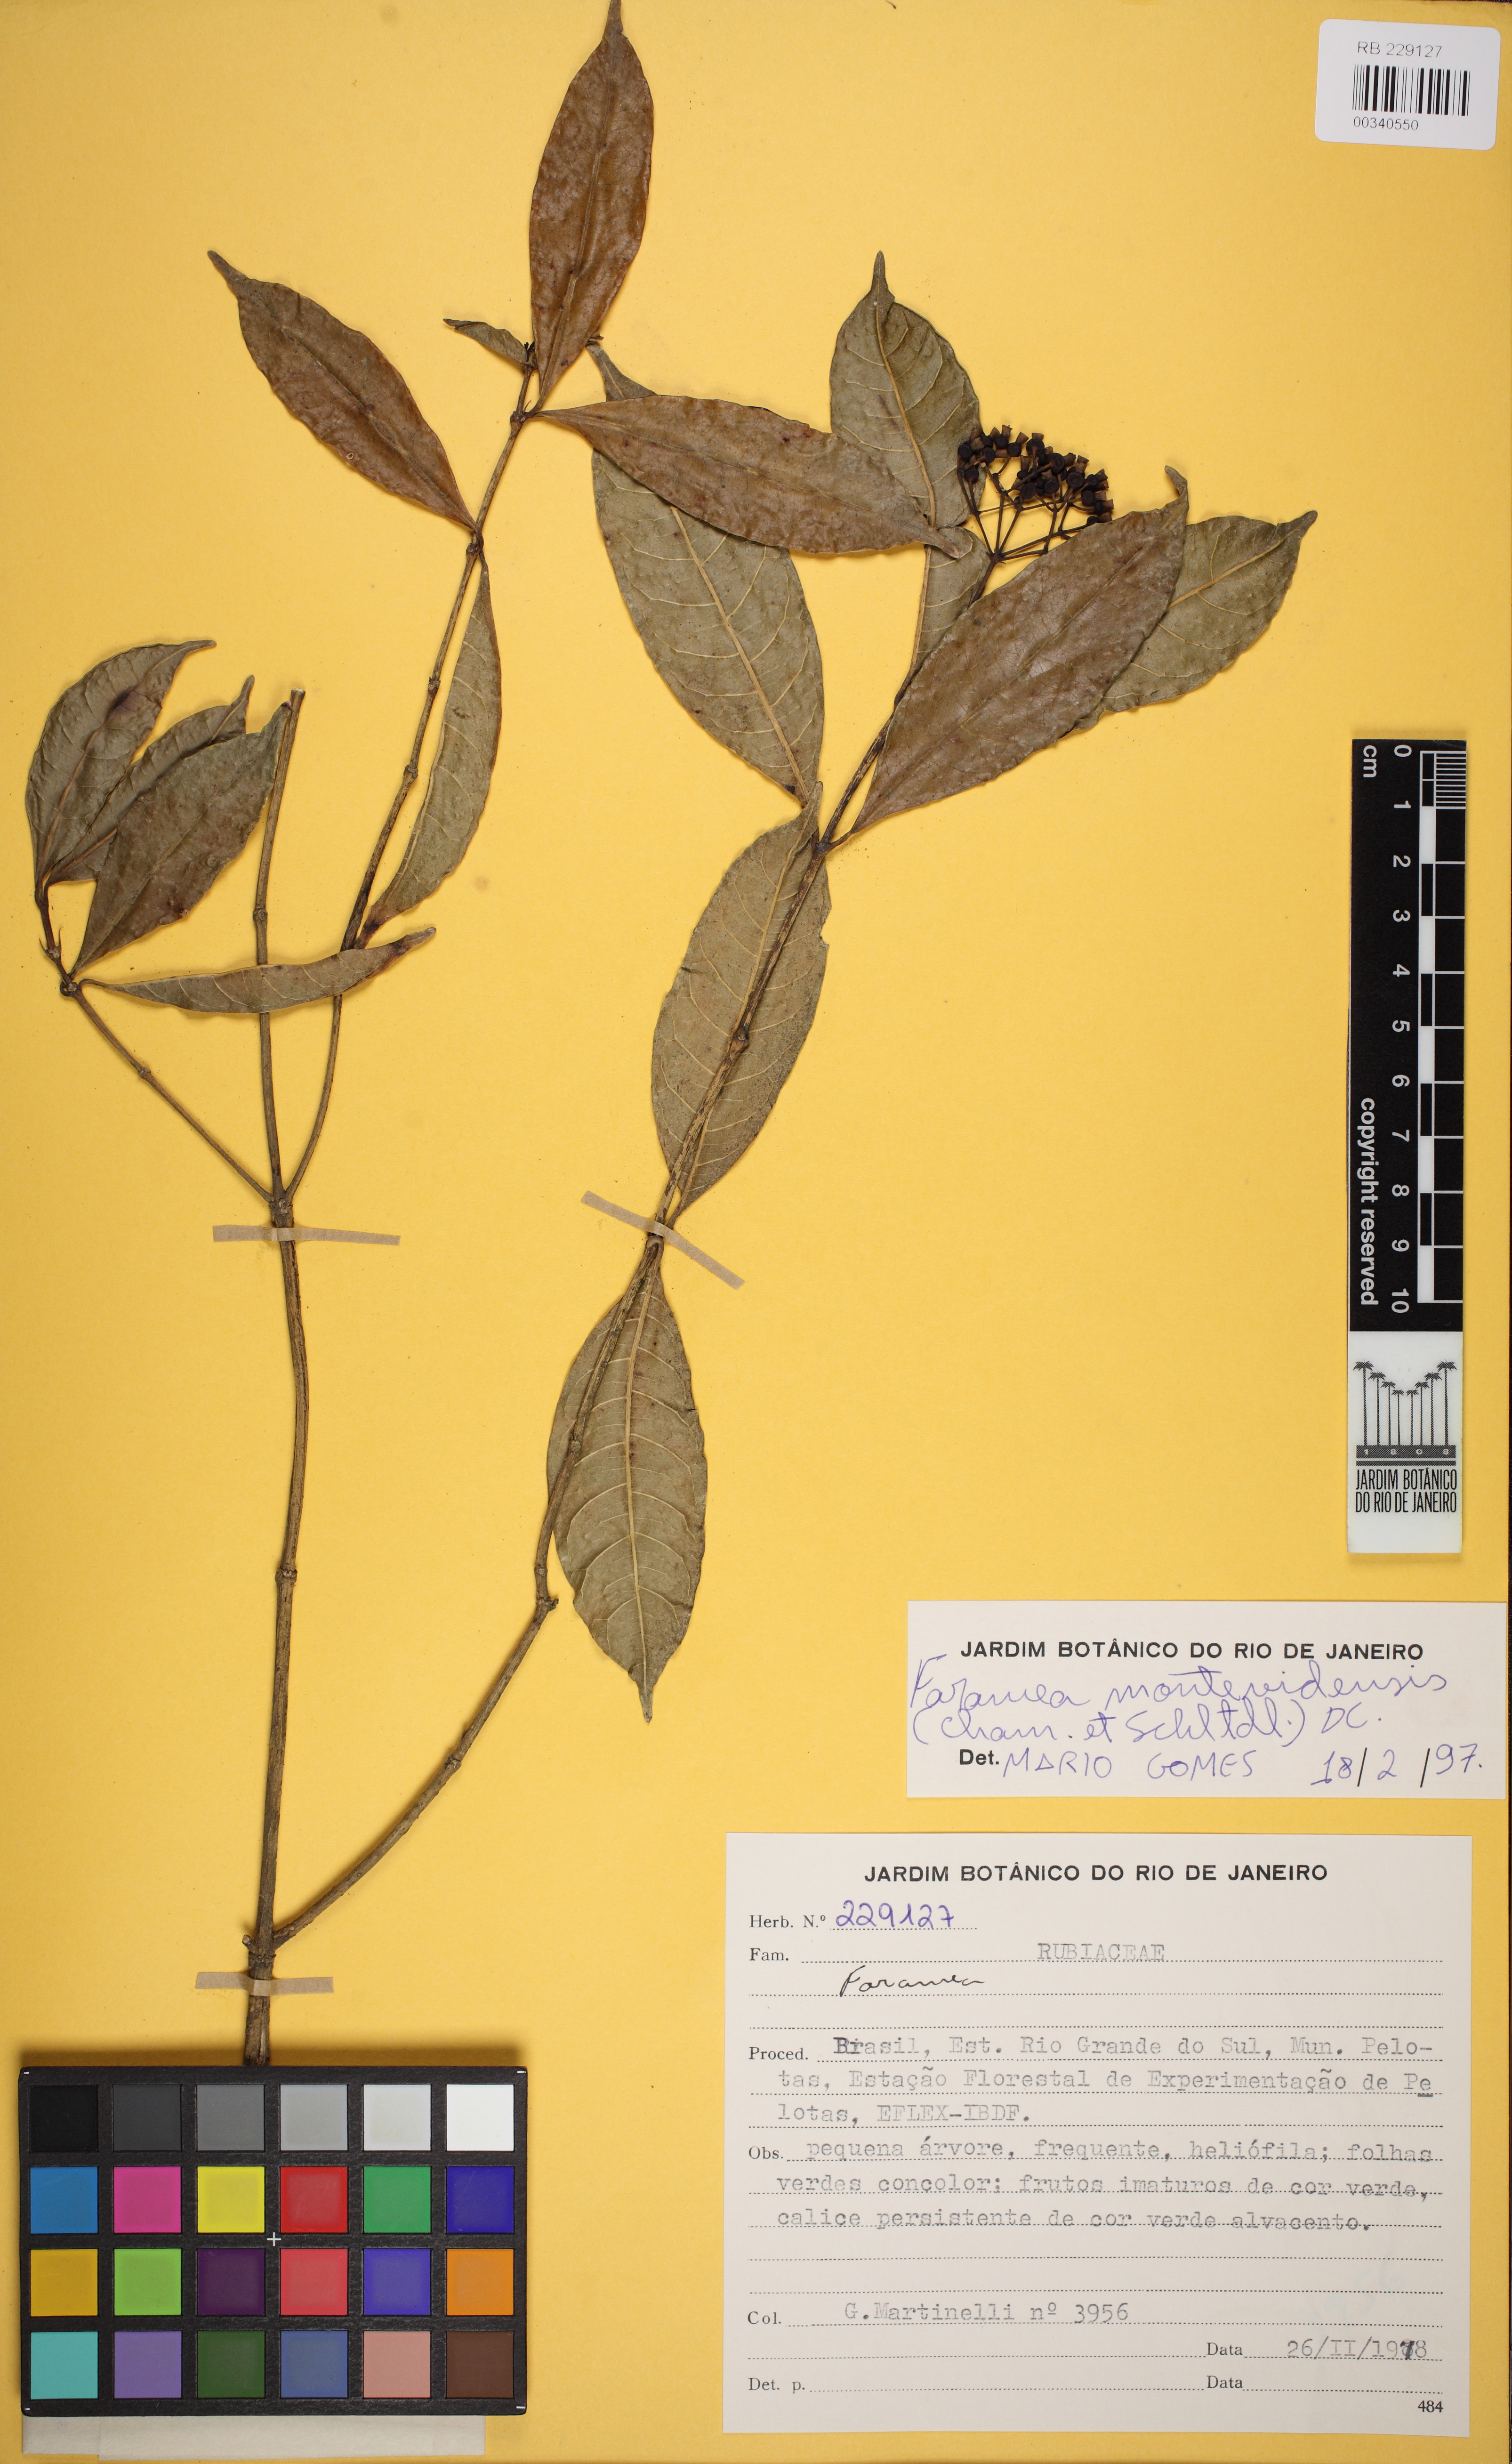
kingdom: Plantae
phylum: Tracheophyta
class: Magnoliopsida
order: Gentianales
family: Rubiaceae
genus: Faramea
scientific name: Faramea montevidensis
